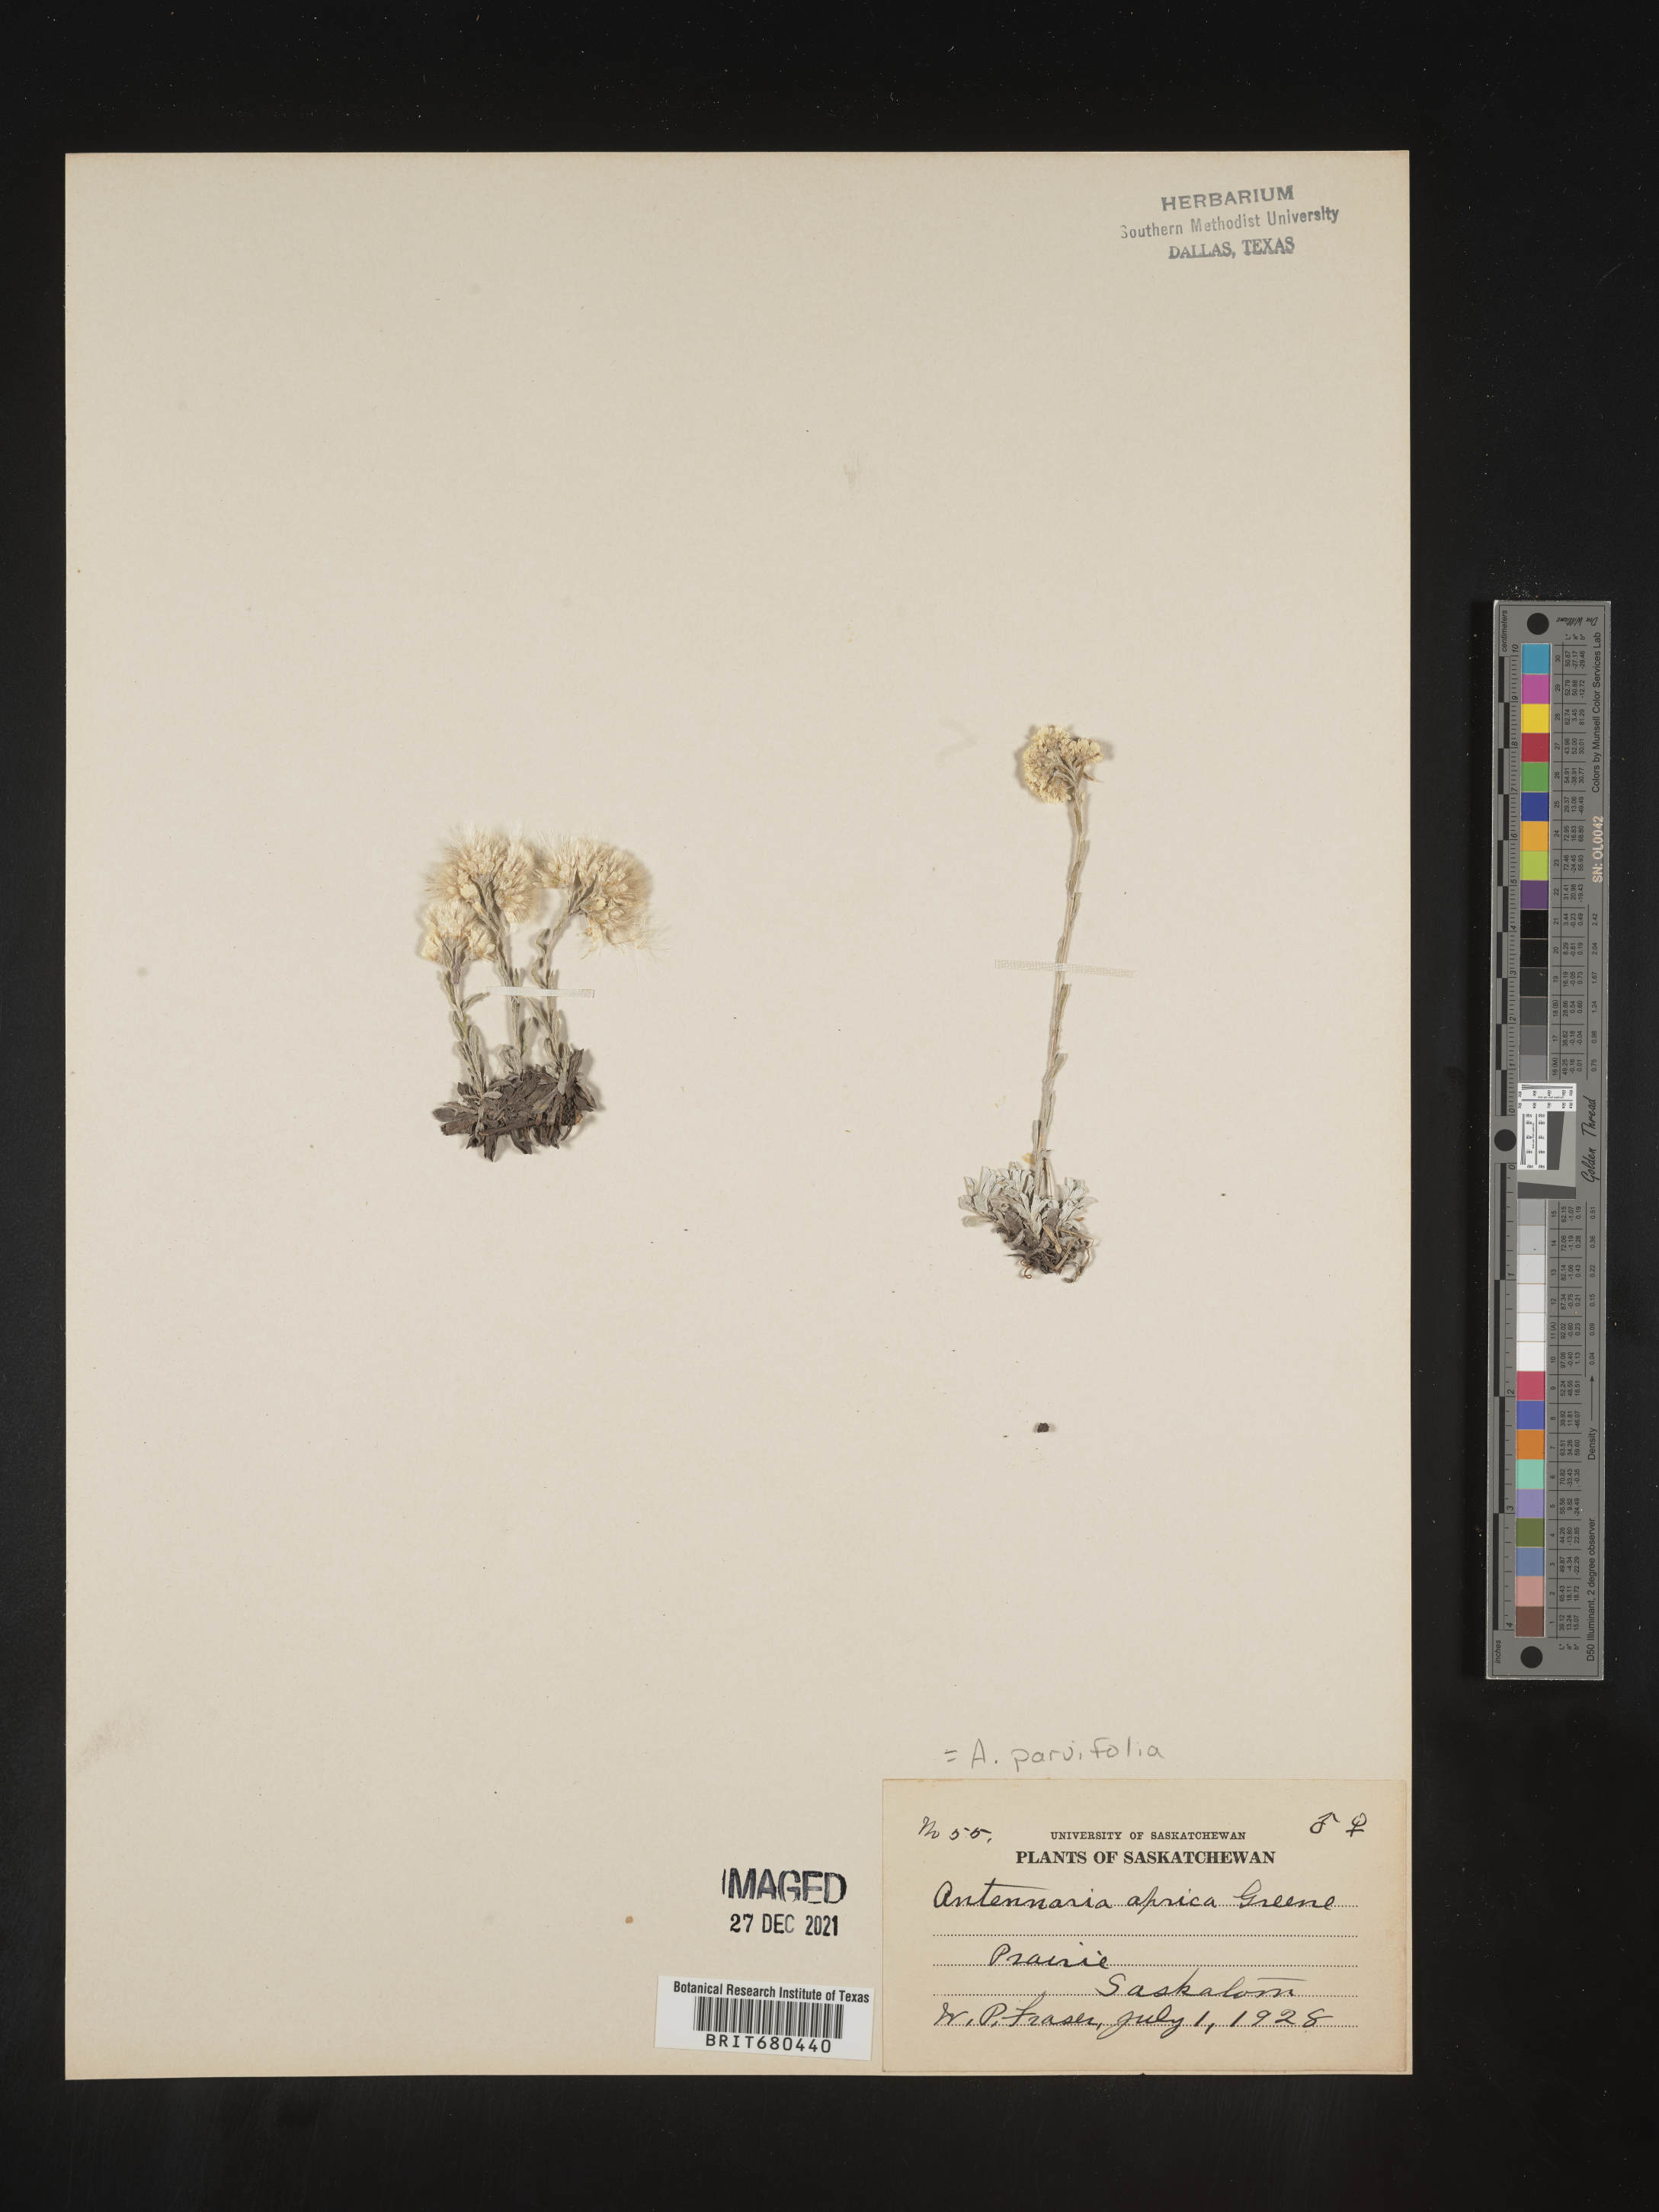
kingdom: Plantae
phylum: Tracheophyta
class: Magnoliopsida
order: Asterales
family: Asteraceae
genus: Antennaria
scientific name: Antennaria rosea
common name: Rosy pussytoes
